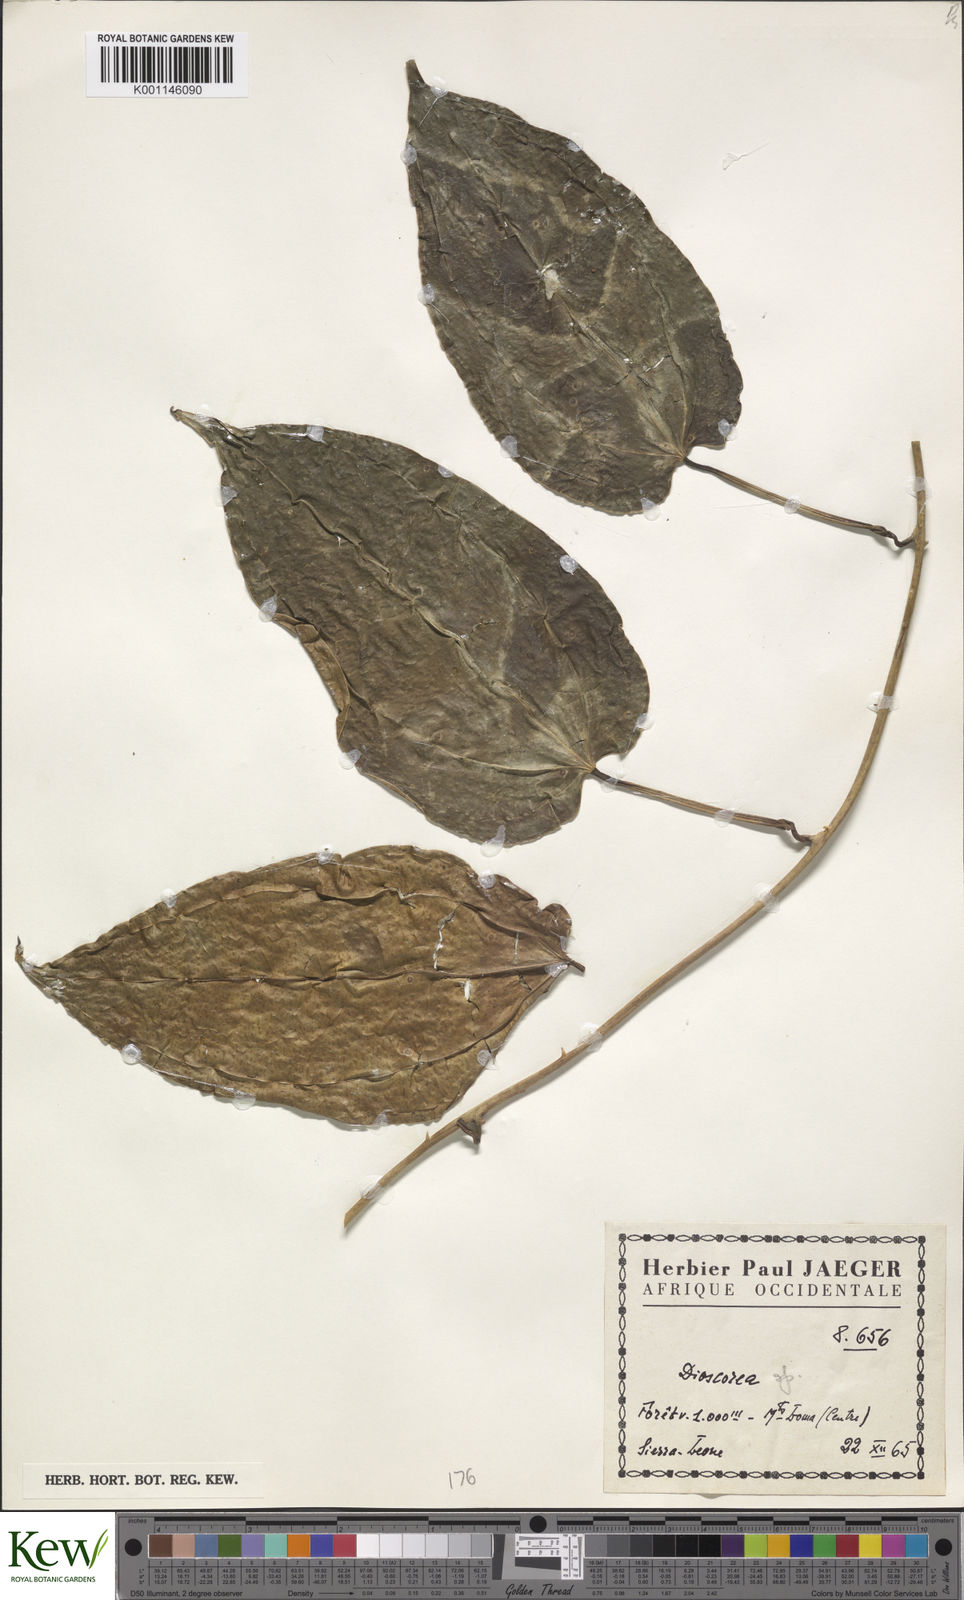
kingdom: Plantae
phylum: Tracheophyta
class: Liliopsida
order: Dioscoreales
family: Dioscoreaceae
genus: Dioscorea
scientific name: Dioscorea
